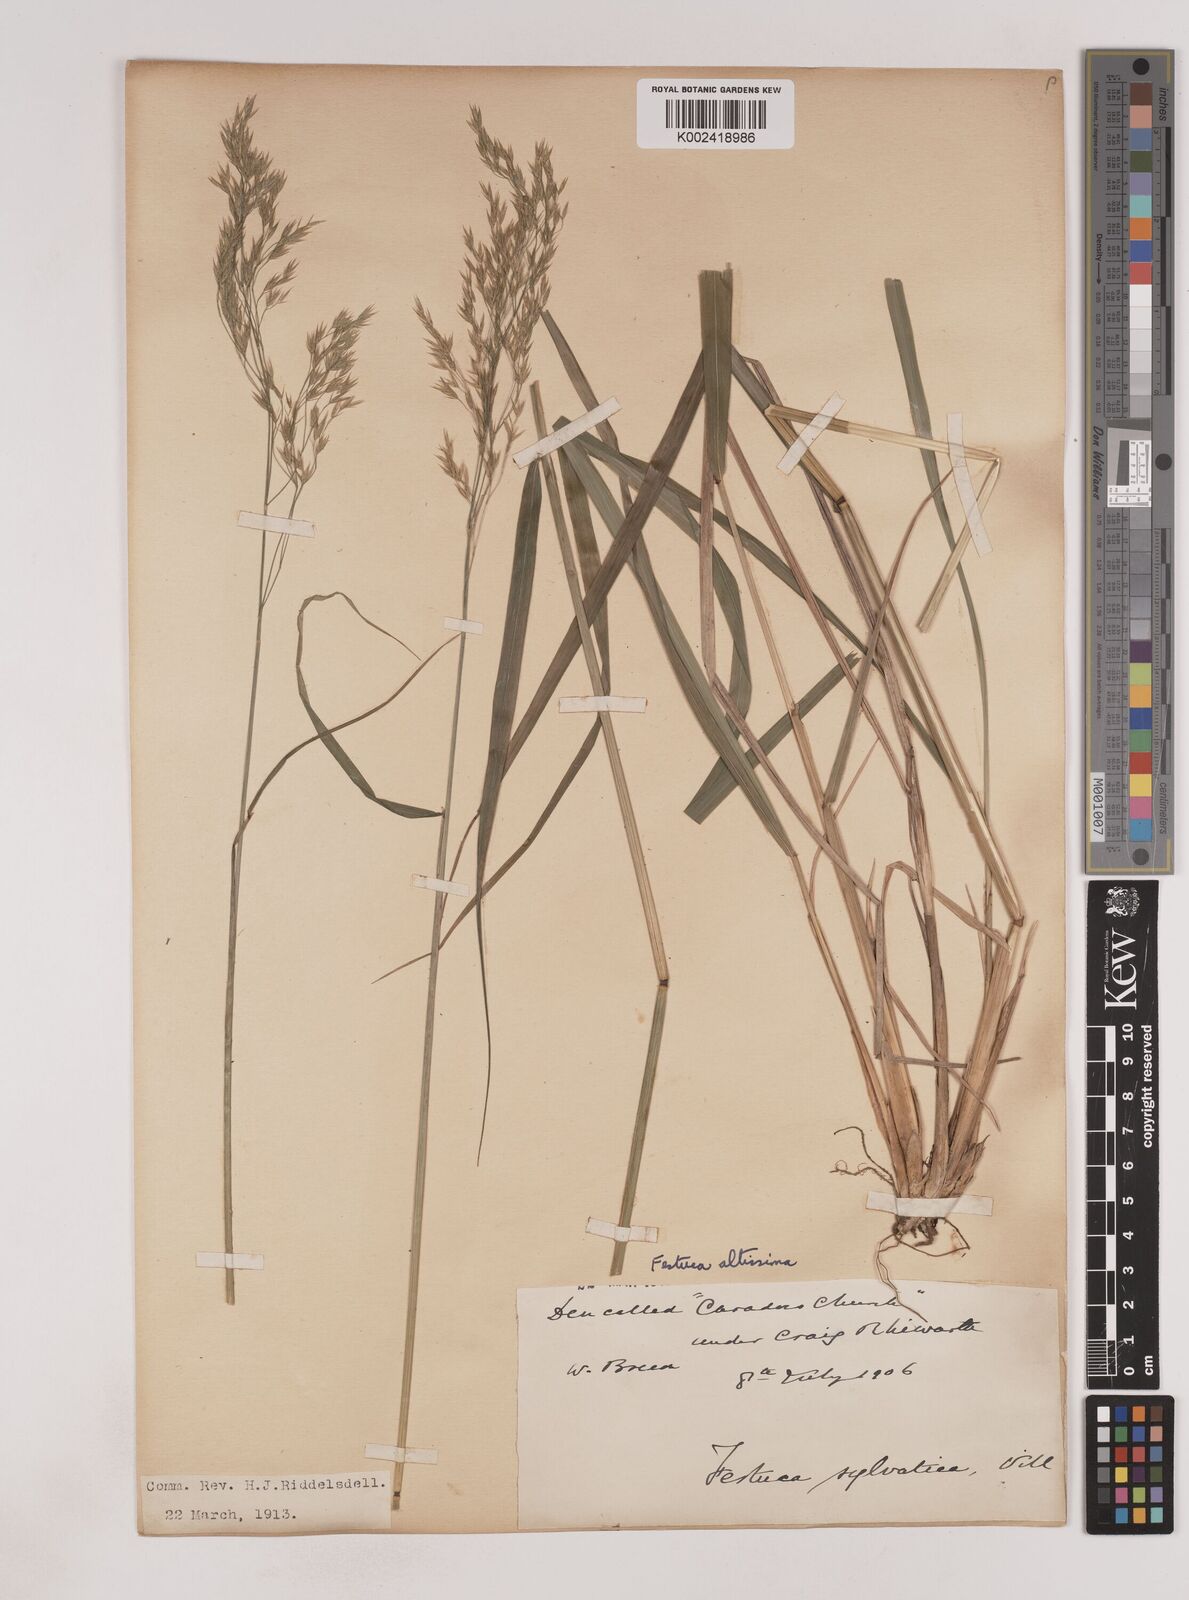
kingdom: Plantae
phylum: Tracheophyta
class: Liliopsida
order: Poales
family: Poaceae
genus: Festuca
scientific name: Festuca drymeja
